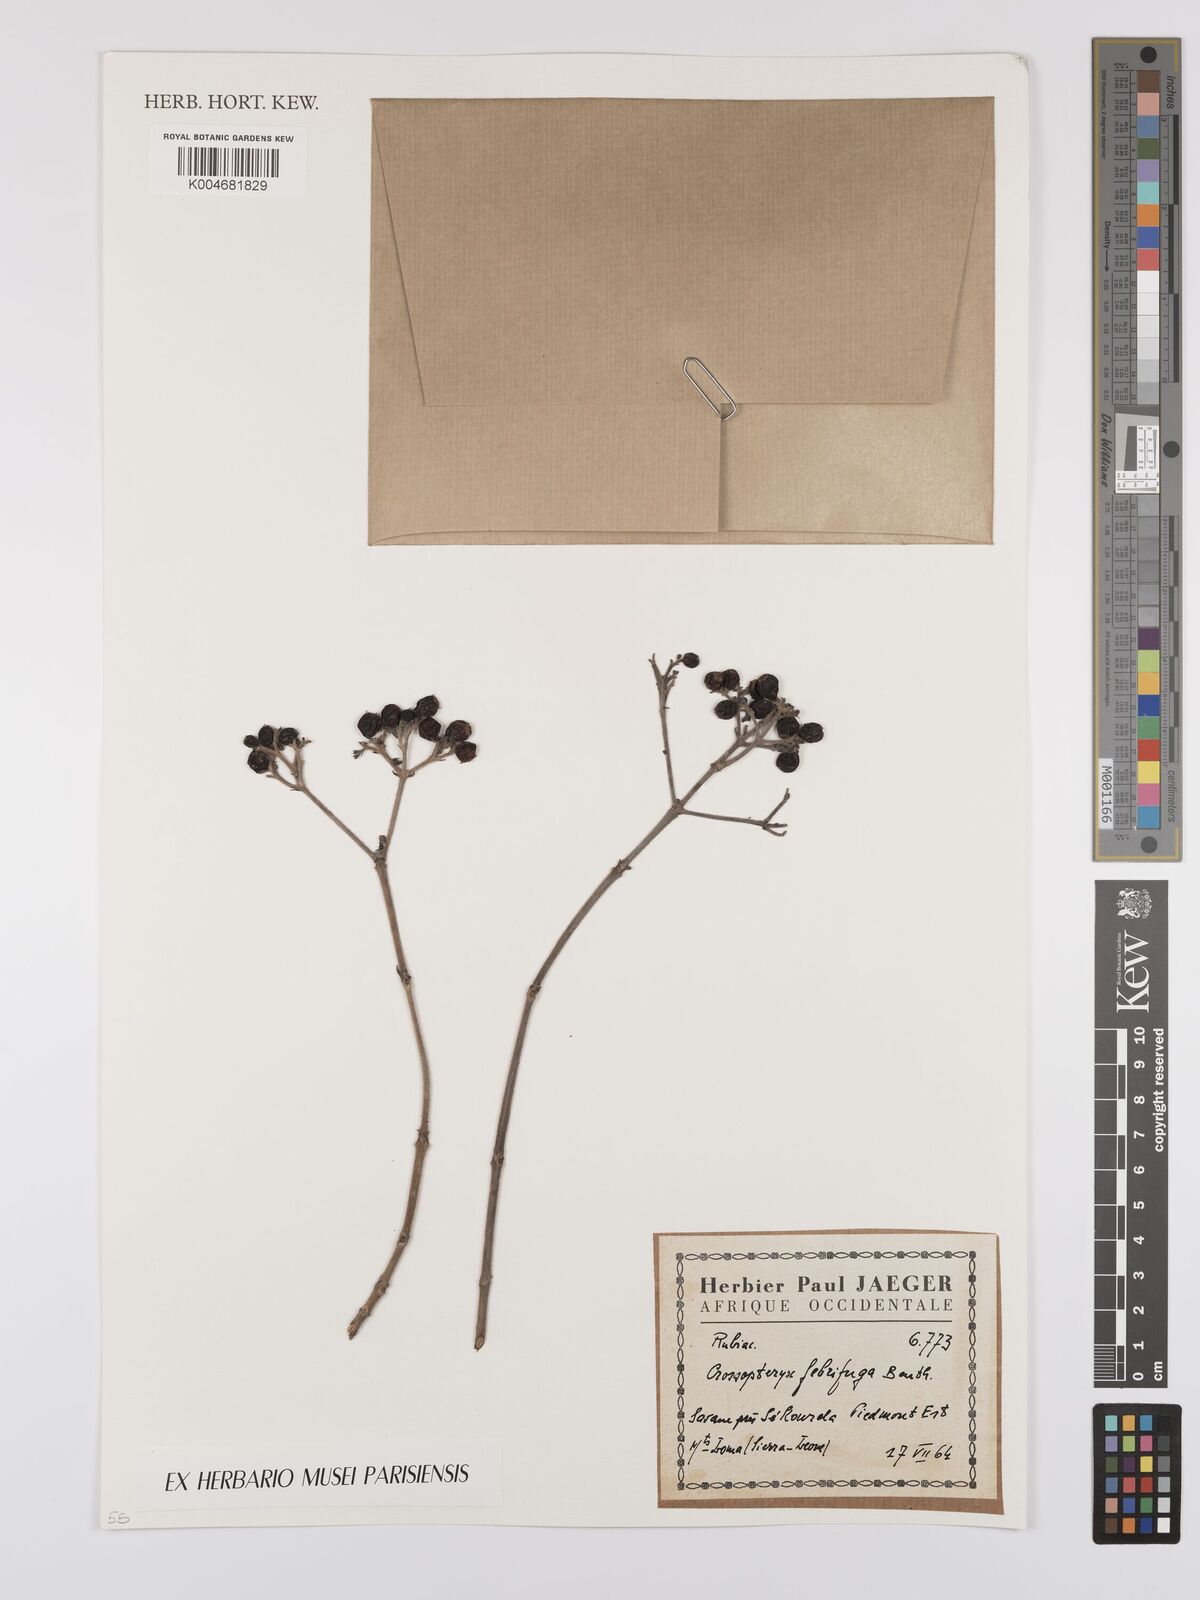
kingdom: Plantae
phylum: Tracheophyta
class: Magnoliopsida
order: Gentianales
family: Rubiaceae
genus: Crossopteryx
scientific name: Crossopteryx febrifuga
